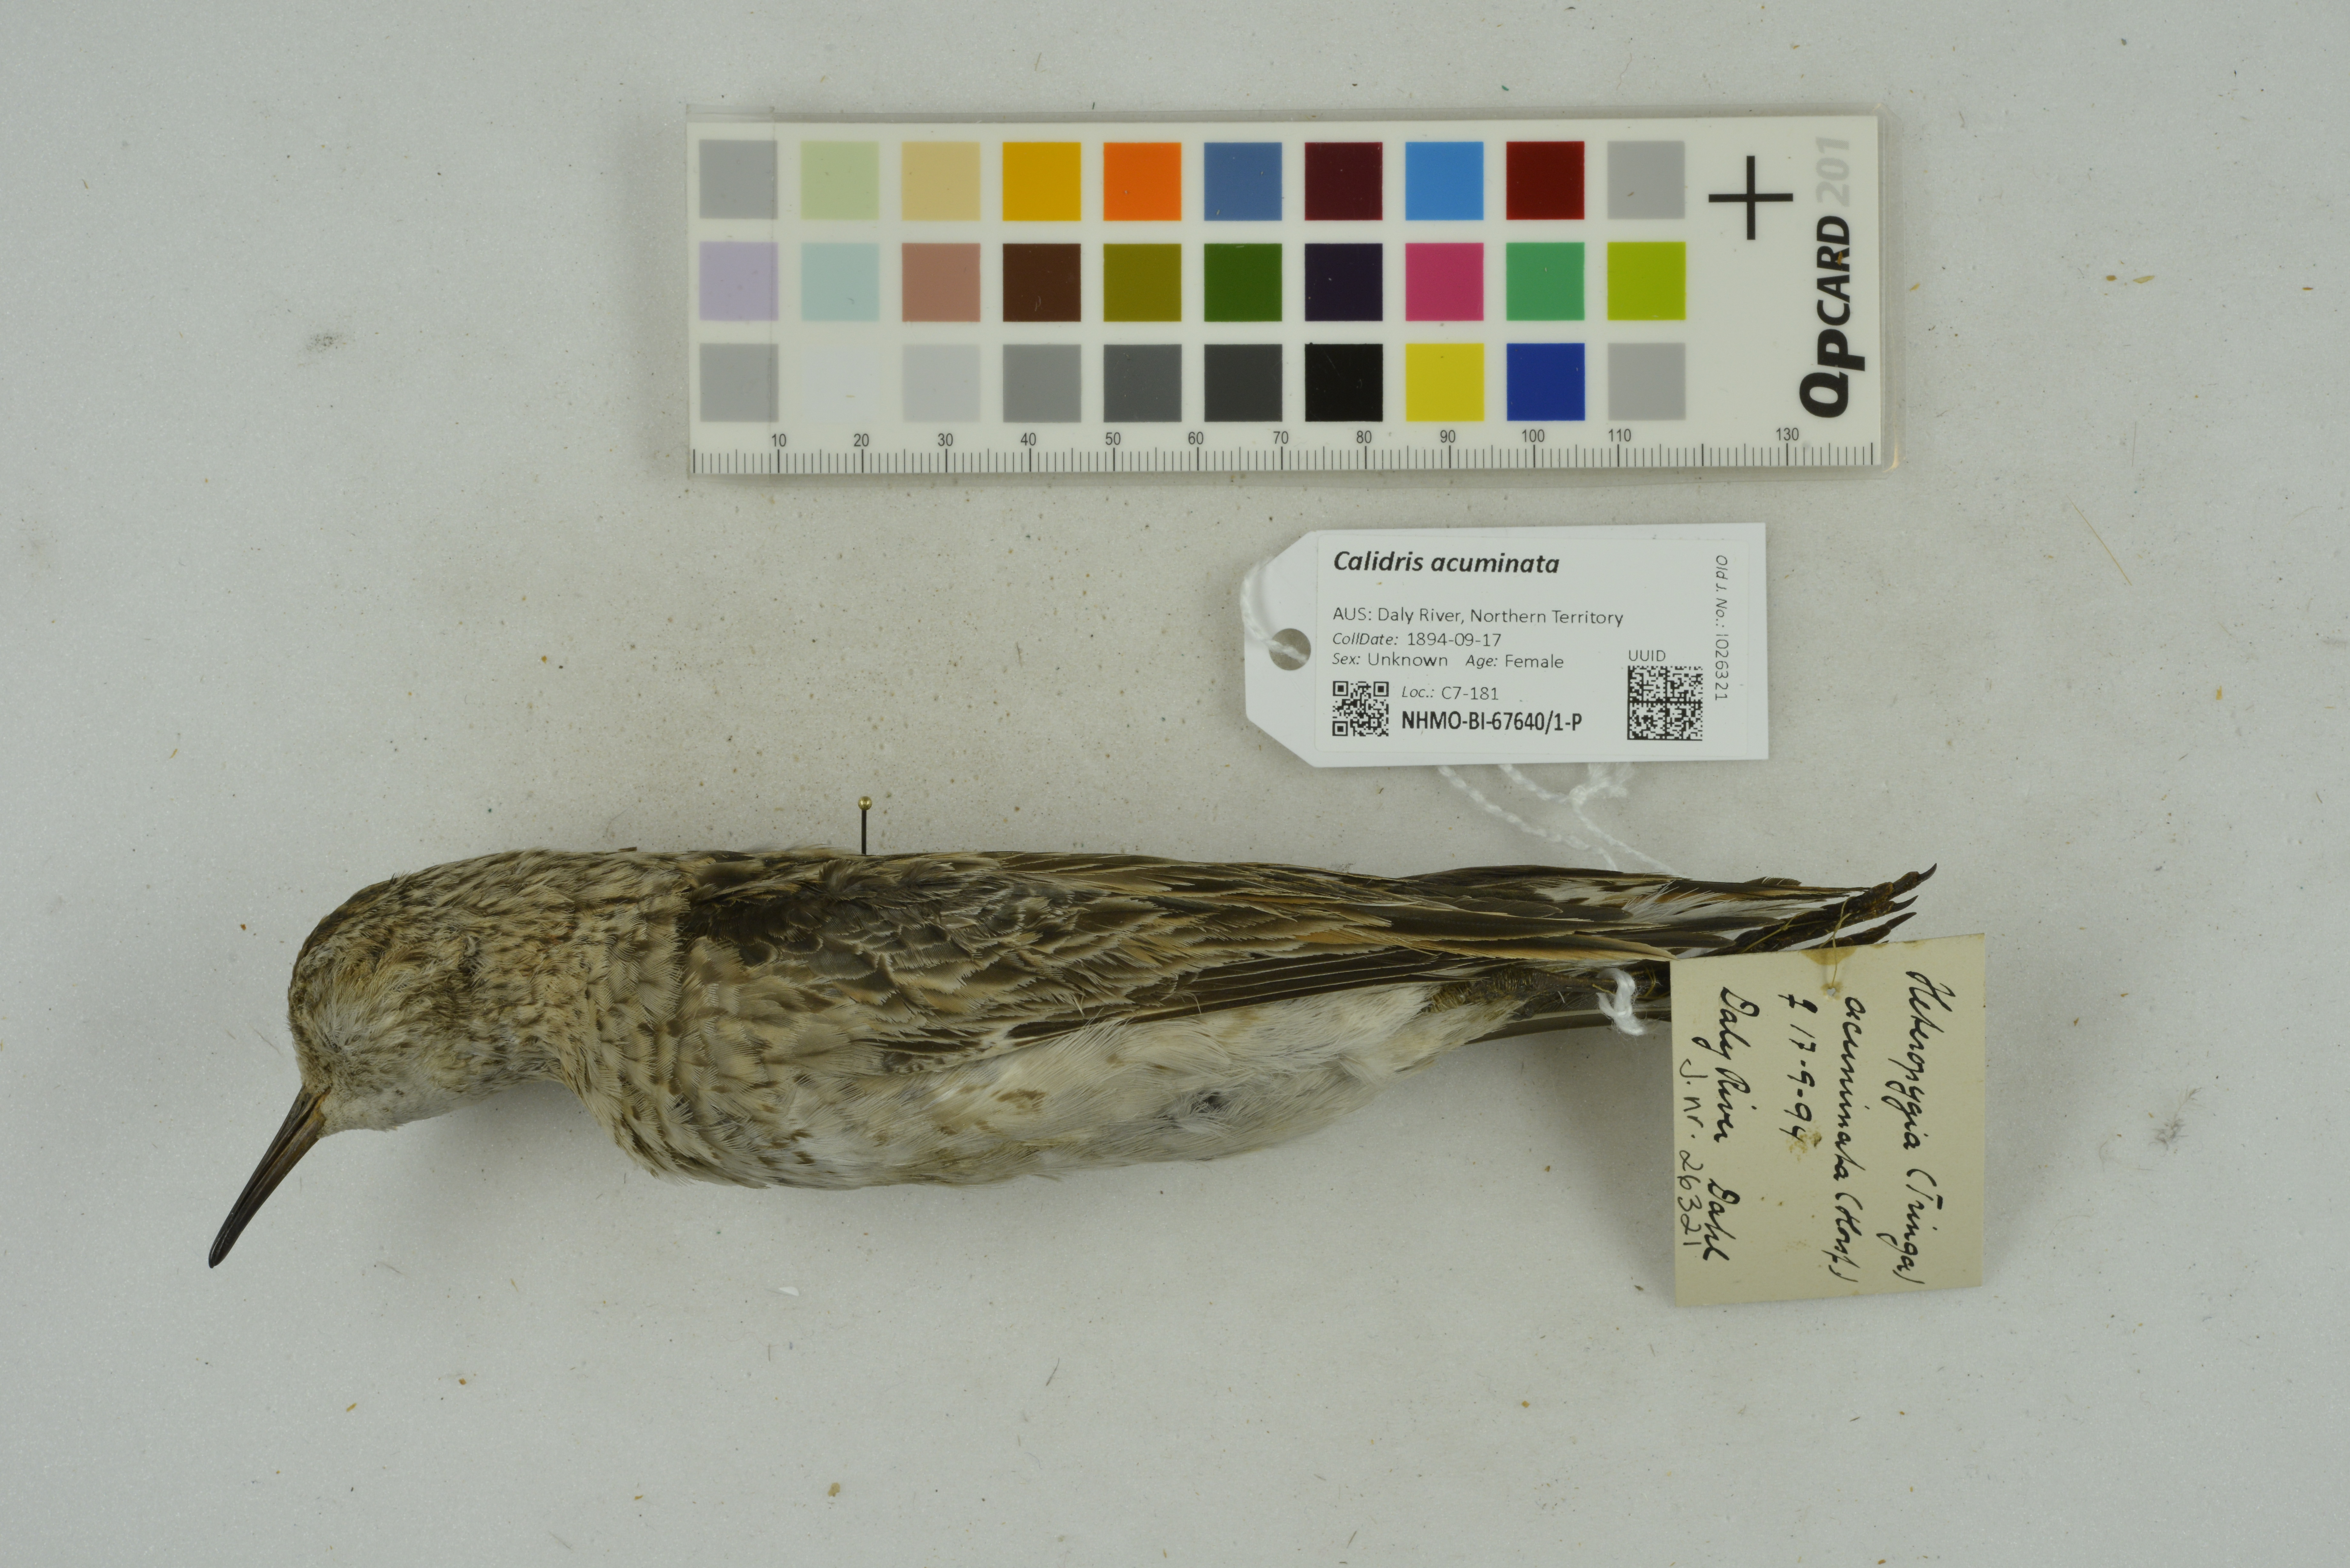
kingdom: Animalia
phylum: Chordata
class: Aves
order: Charadriiformes
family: Scolopacidae
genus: Calidris
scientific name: Calidris acuminata
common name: Sharp-tailed sandpiper
